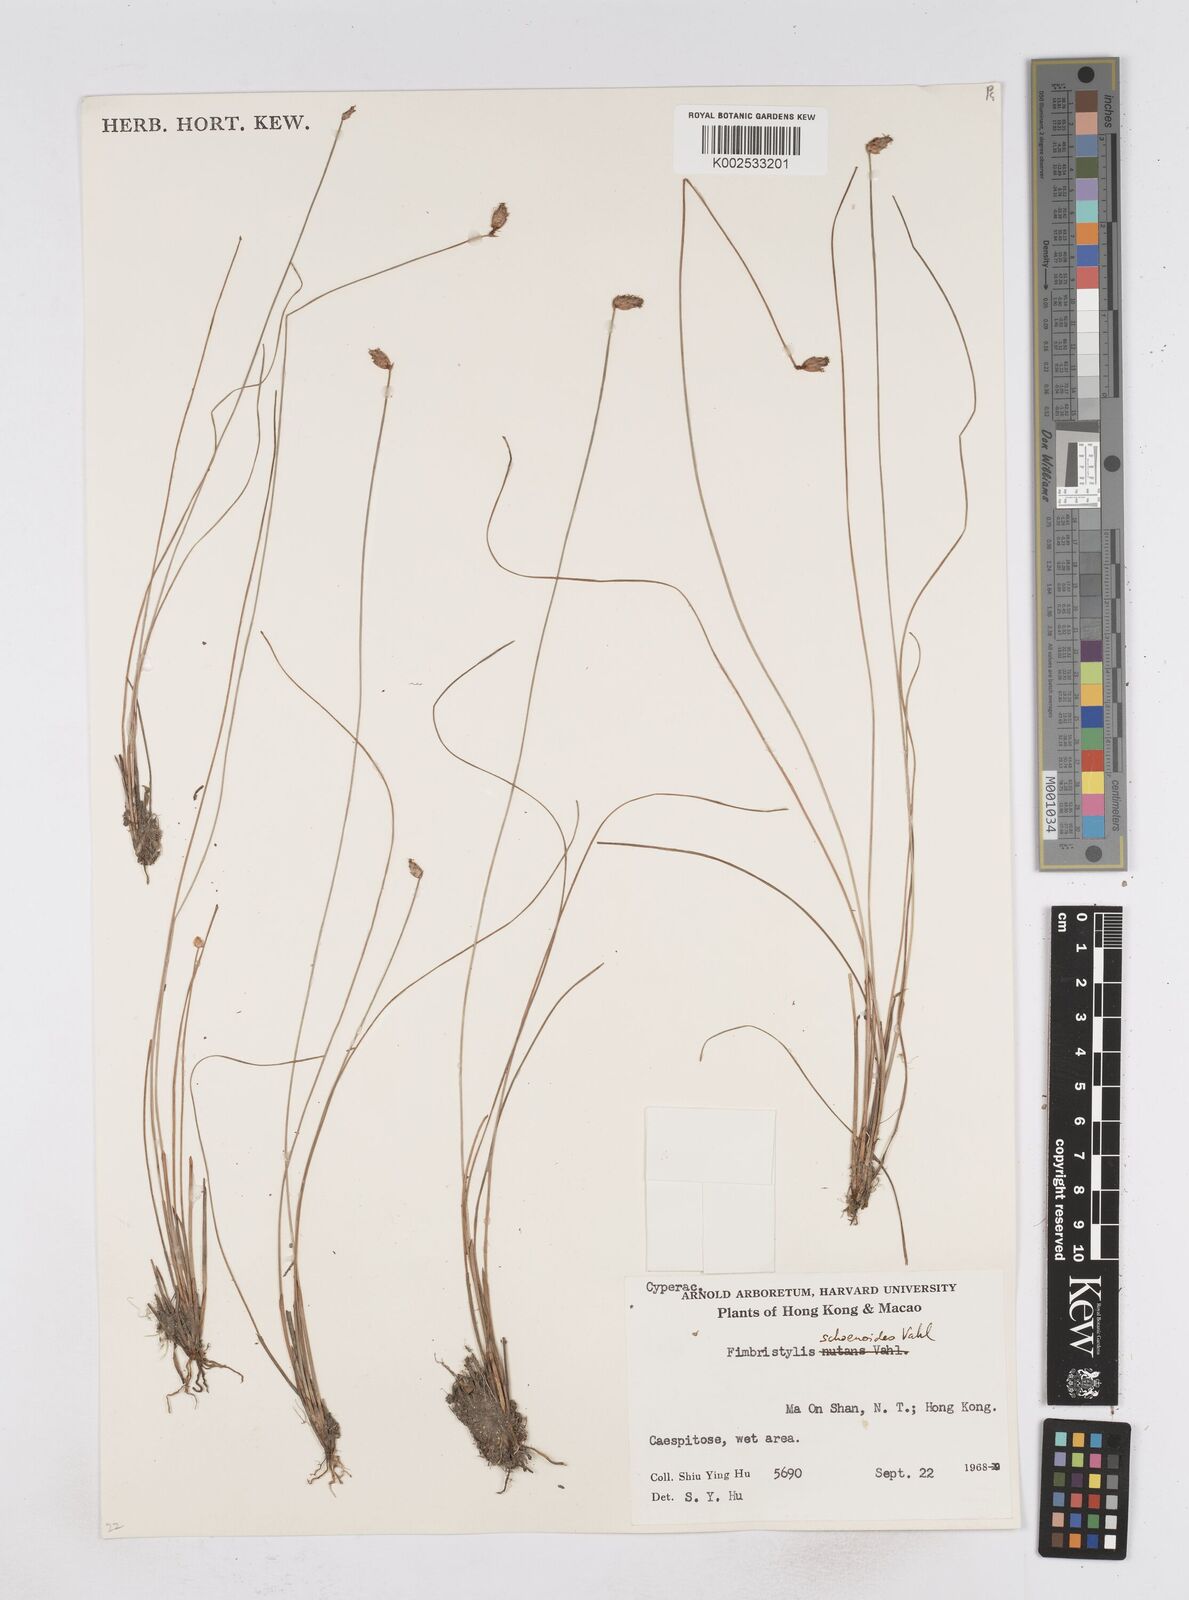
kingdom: Plantae
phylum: Tracheophyta
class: Liliopsida
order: Poales
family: Cyperaceae
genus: Fimbristylis
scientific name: Fimbristylis schoenoides
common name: Ditch fimbry
